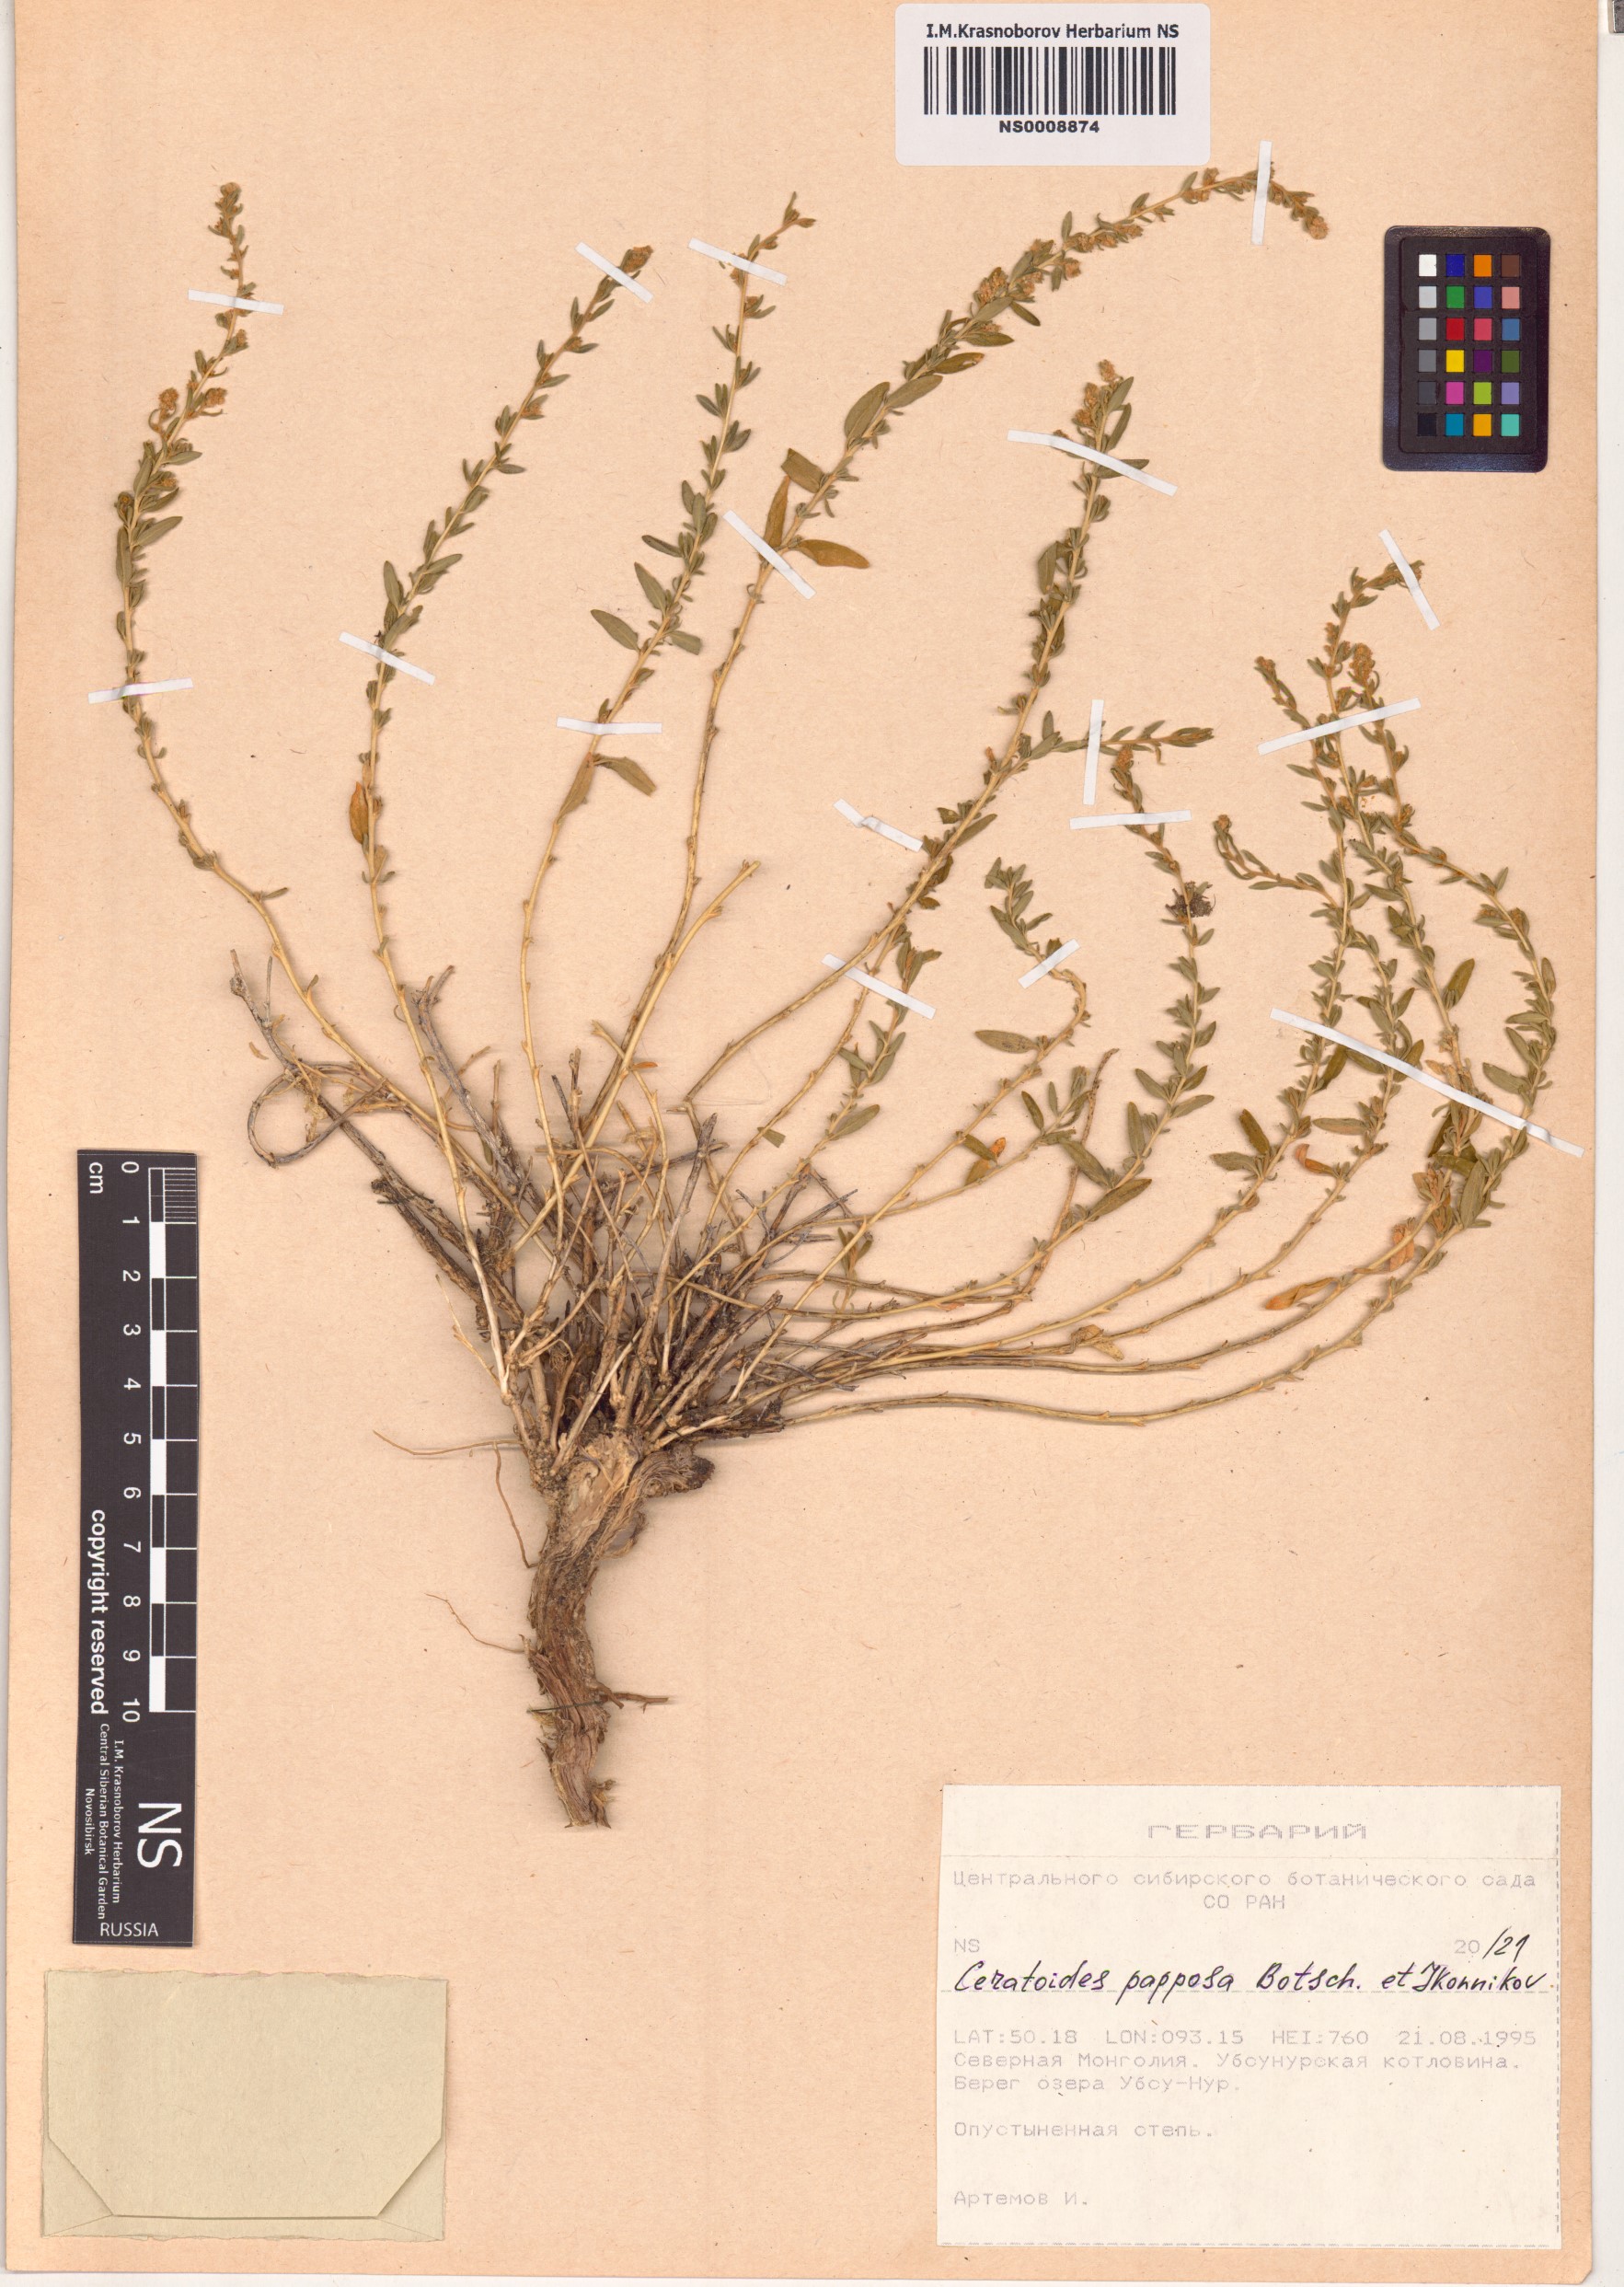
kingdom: Plantae
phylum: Tracheophyta
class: Magnoliopsida
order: Caryophyllales
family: Amaranthaceae
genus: Krascheninnikovia
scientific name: Krascheninnikovia ceratoides
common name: Pamirian winterfat
